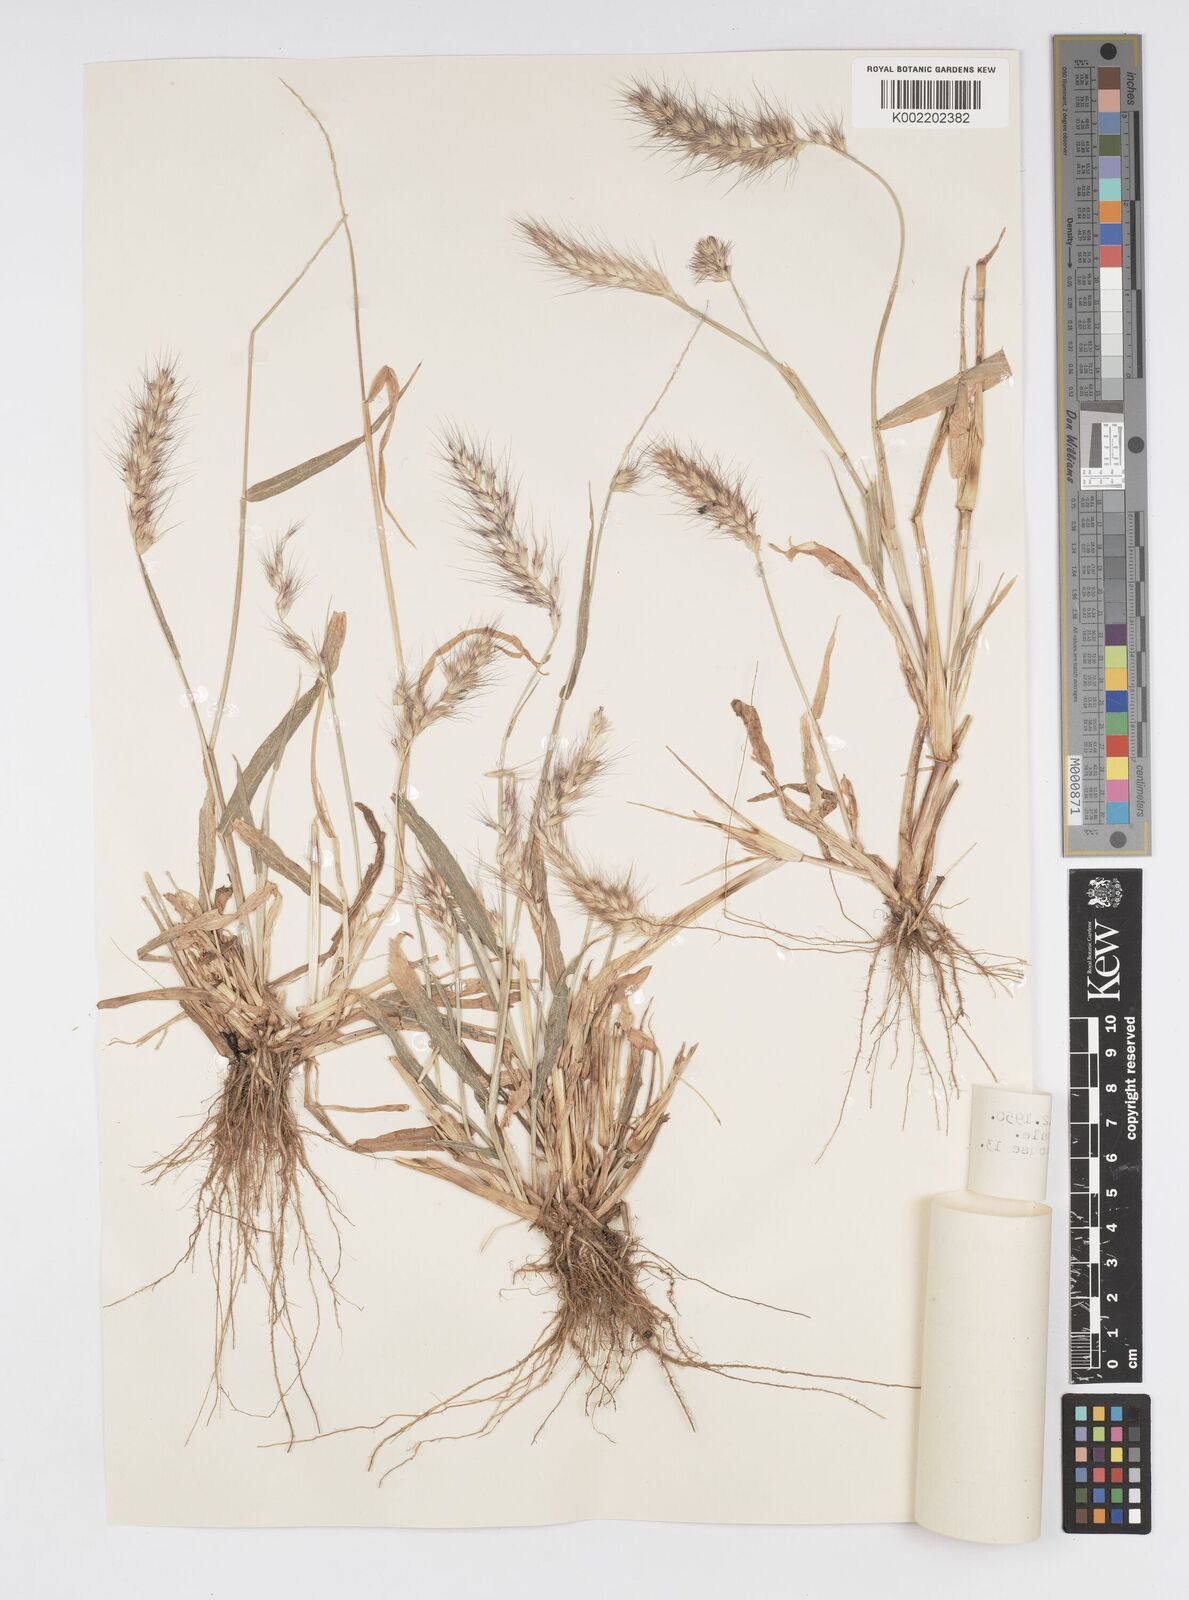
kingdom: Plantae
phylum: Tracheophyta
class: Liliopsida
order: Poales
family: Poaceae
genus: Cenchrus
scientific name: Cenchrus pedicellatus
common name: Hairy fountain grass
